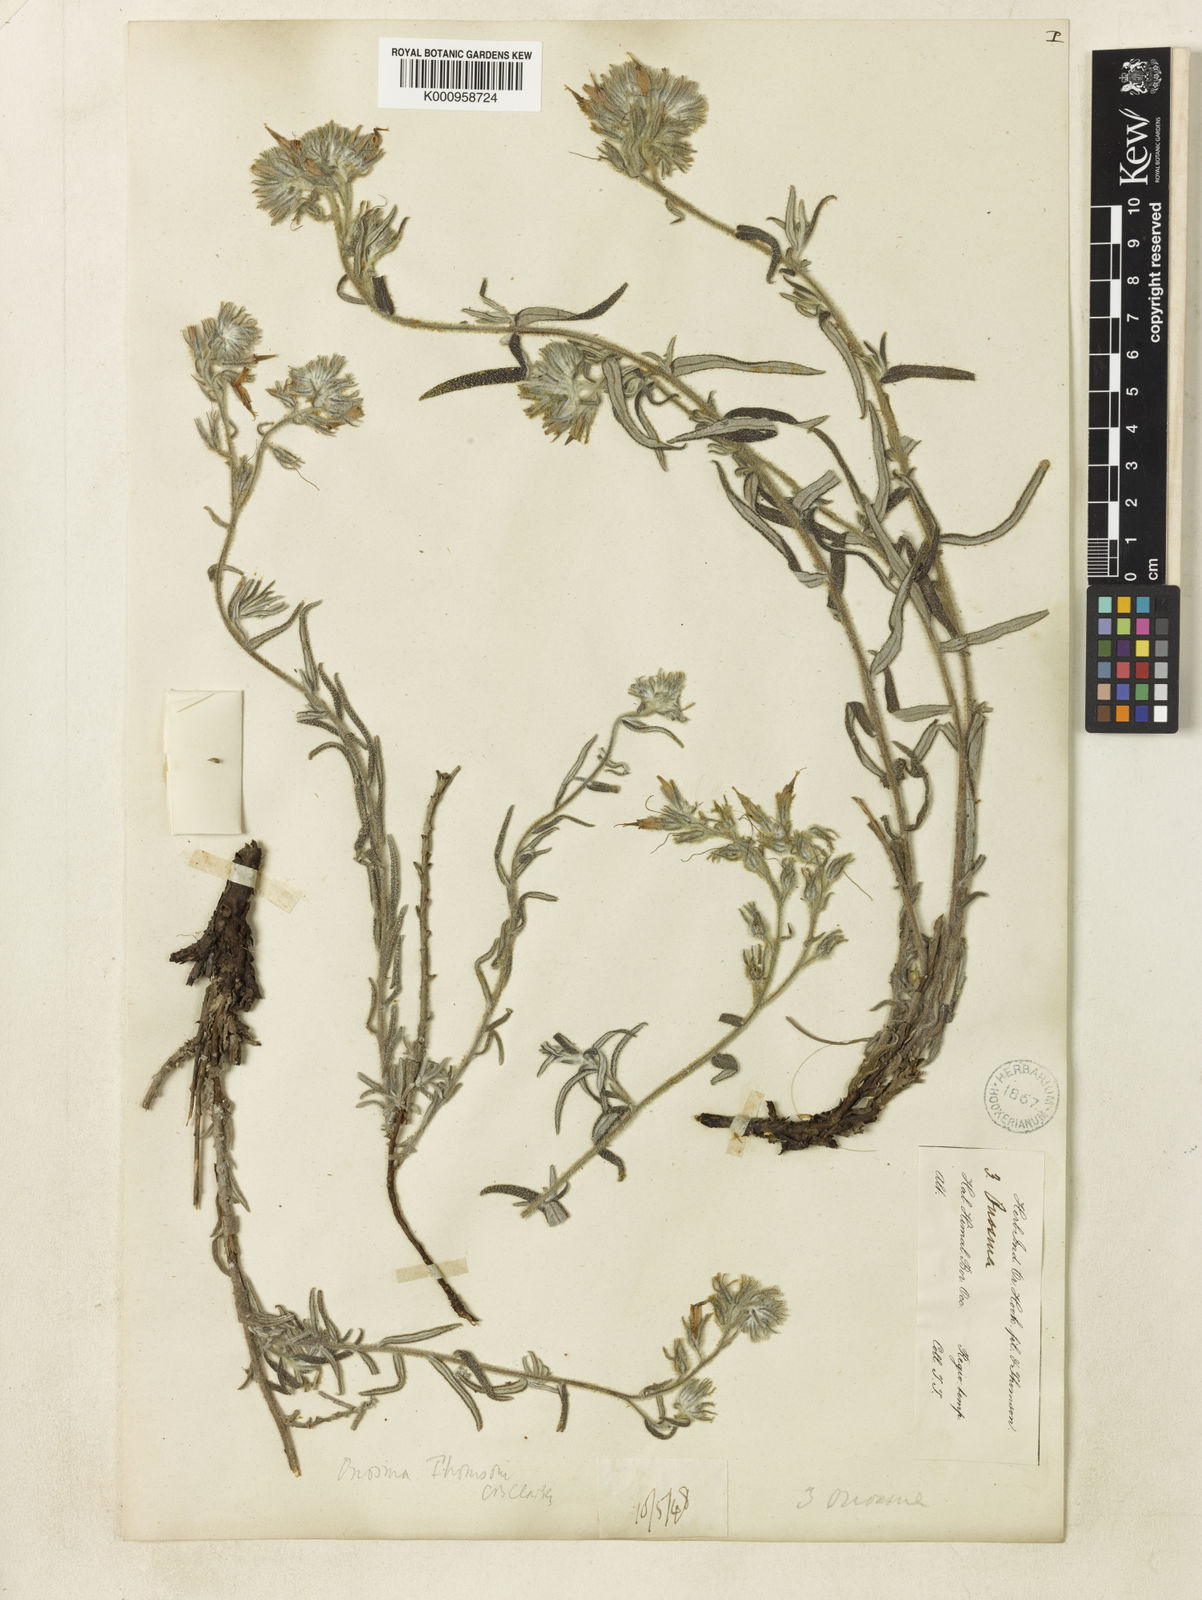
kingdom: Plantae
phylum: Tracheophyta
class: Magnoliopsida
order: Boraginales
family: Boraginaceae
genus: Maharanga
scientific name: Maharanga thomsonii
